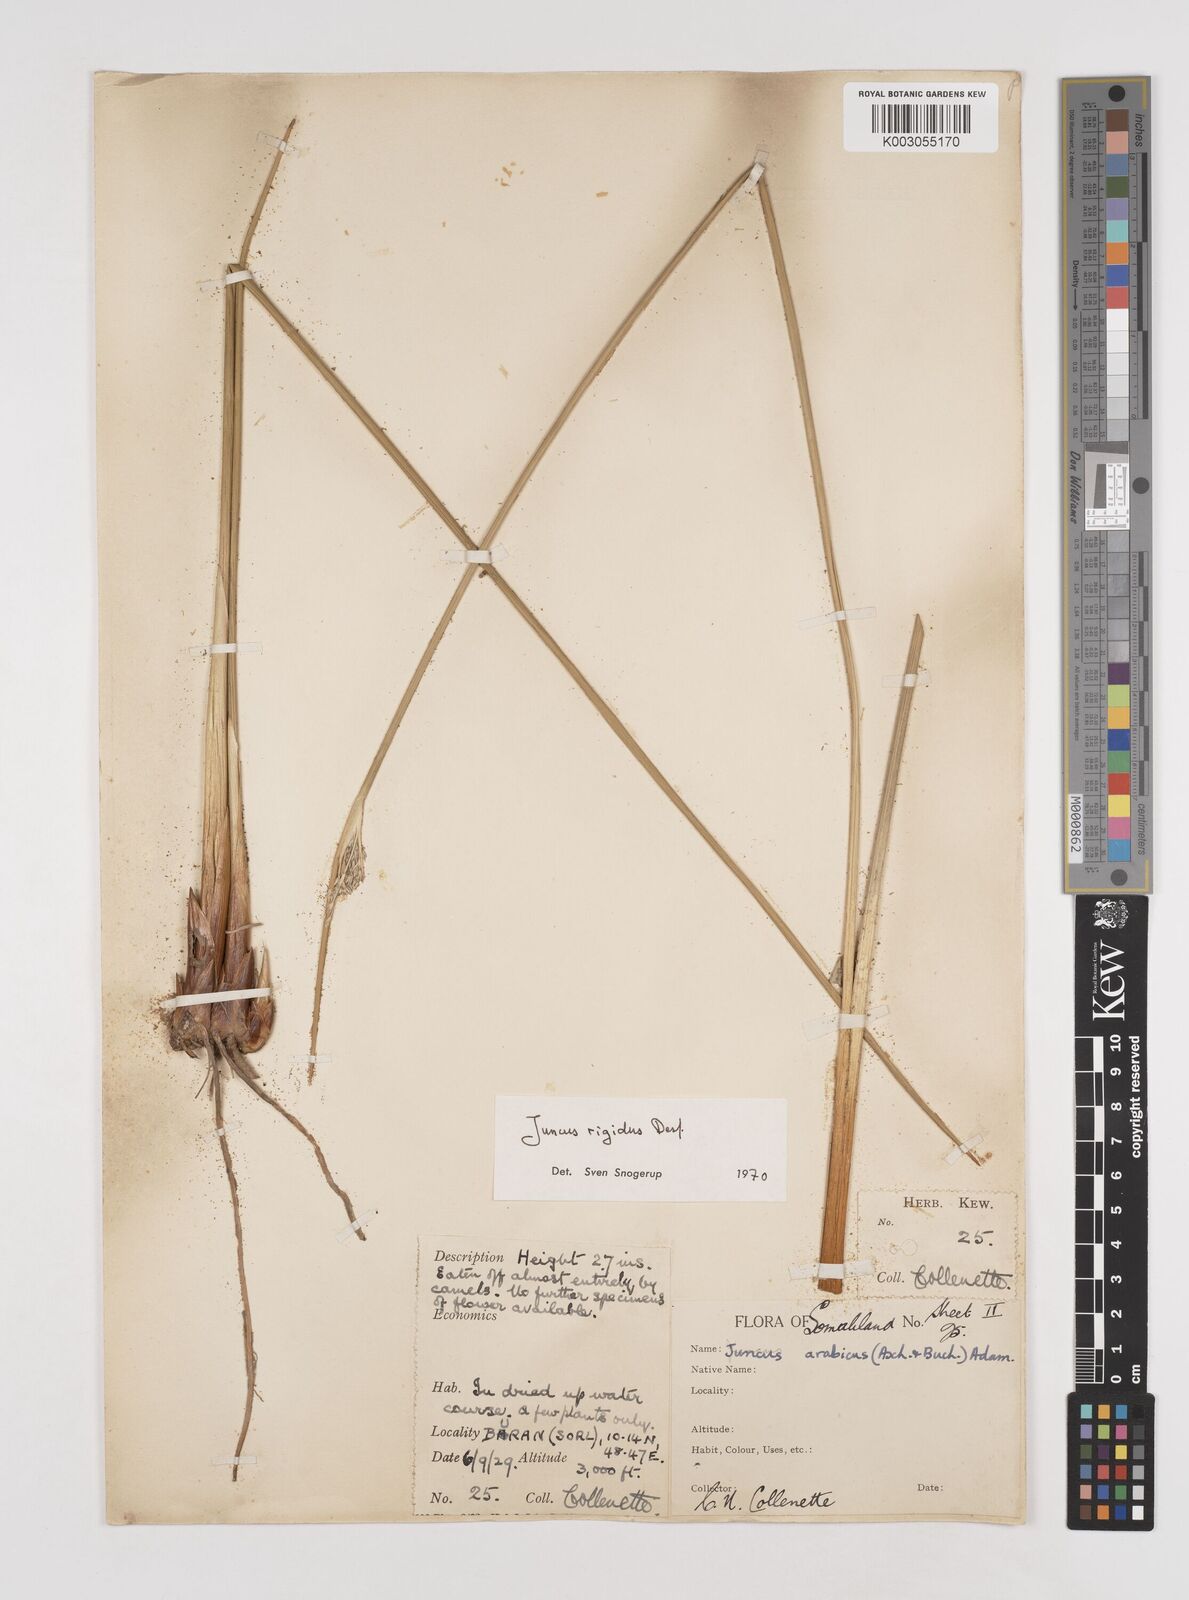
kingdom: Plantae
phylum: Tracheophyta
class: Liliopsida
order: Poales
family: Juncaceae
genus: Juncus
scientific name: Juncus rigidus
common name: Hard sea rush
